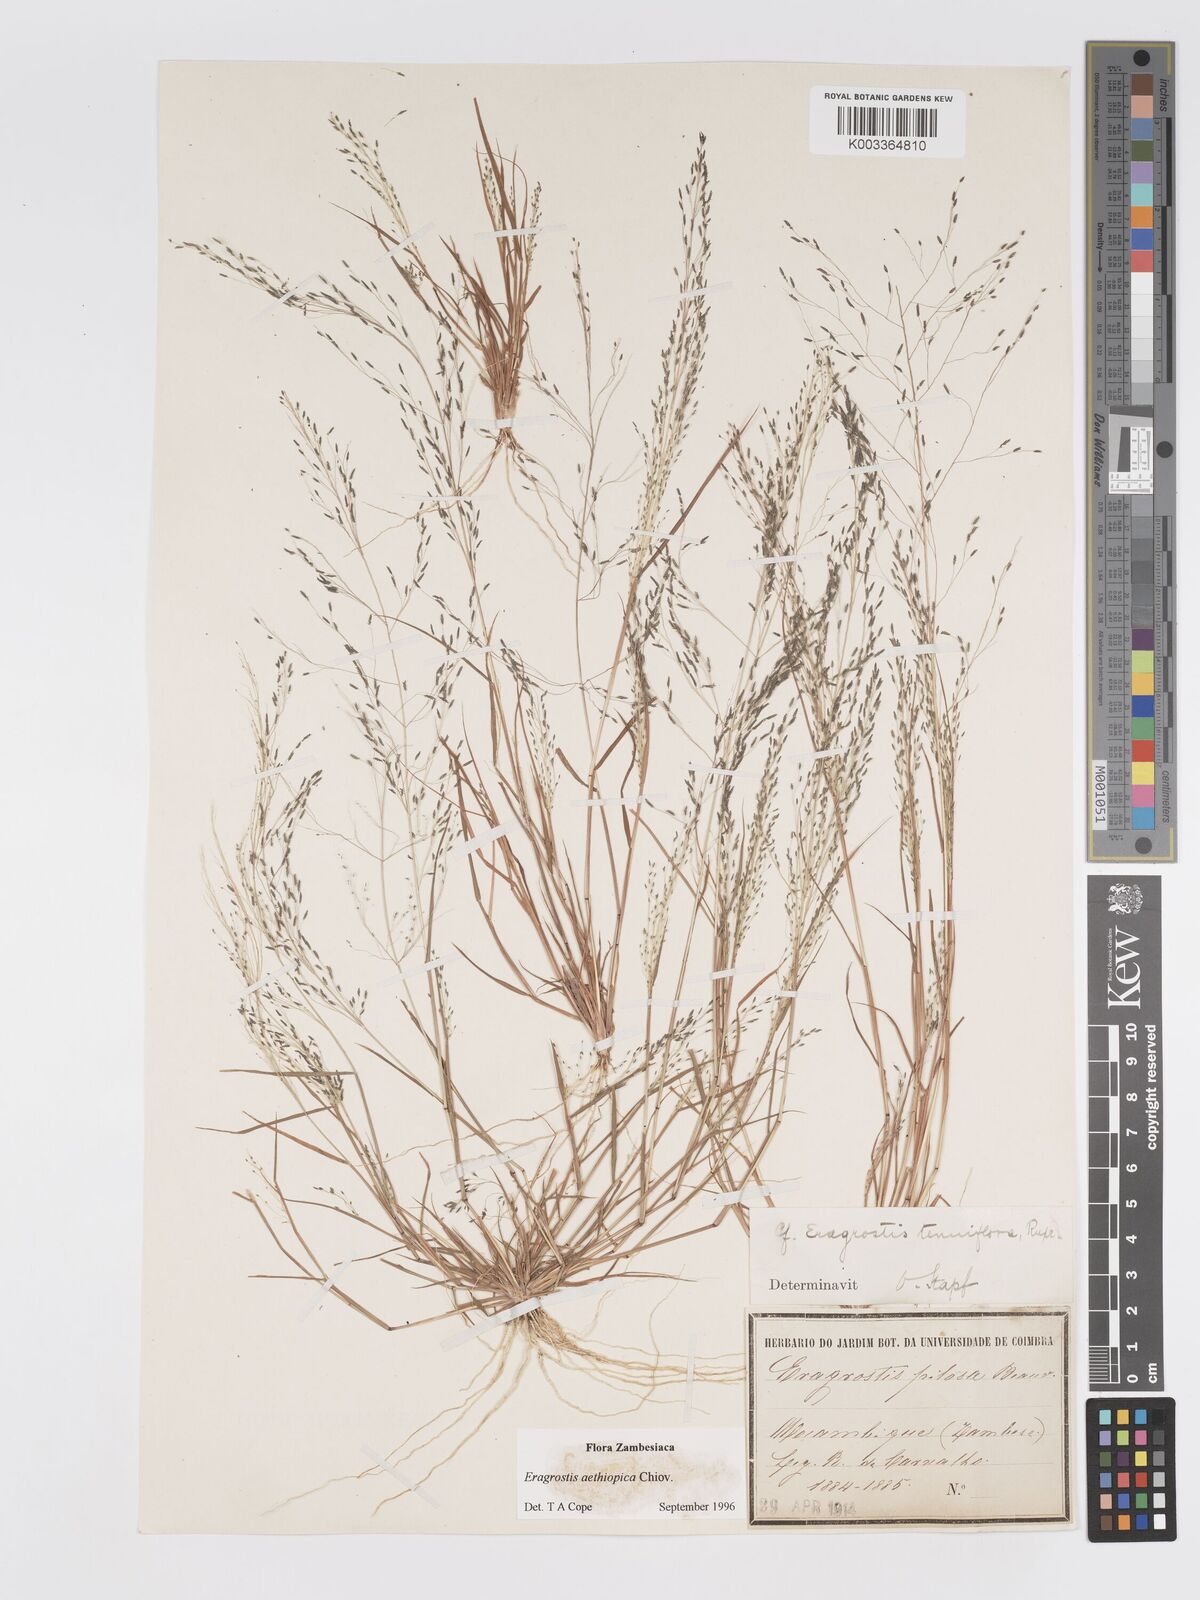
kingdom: Plantae
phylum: Tracheophyta
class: Liliopsida
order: Poales
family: Poaceae
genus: Eragrostis
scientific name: Eragrostis aethiopica
